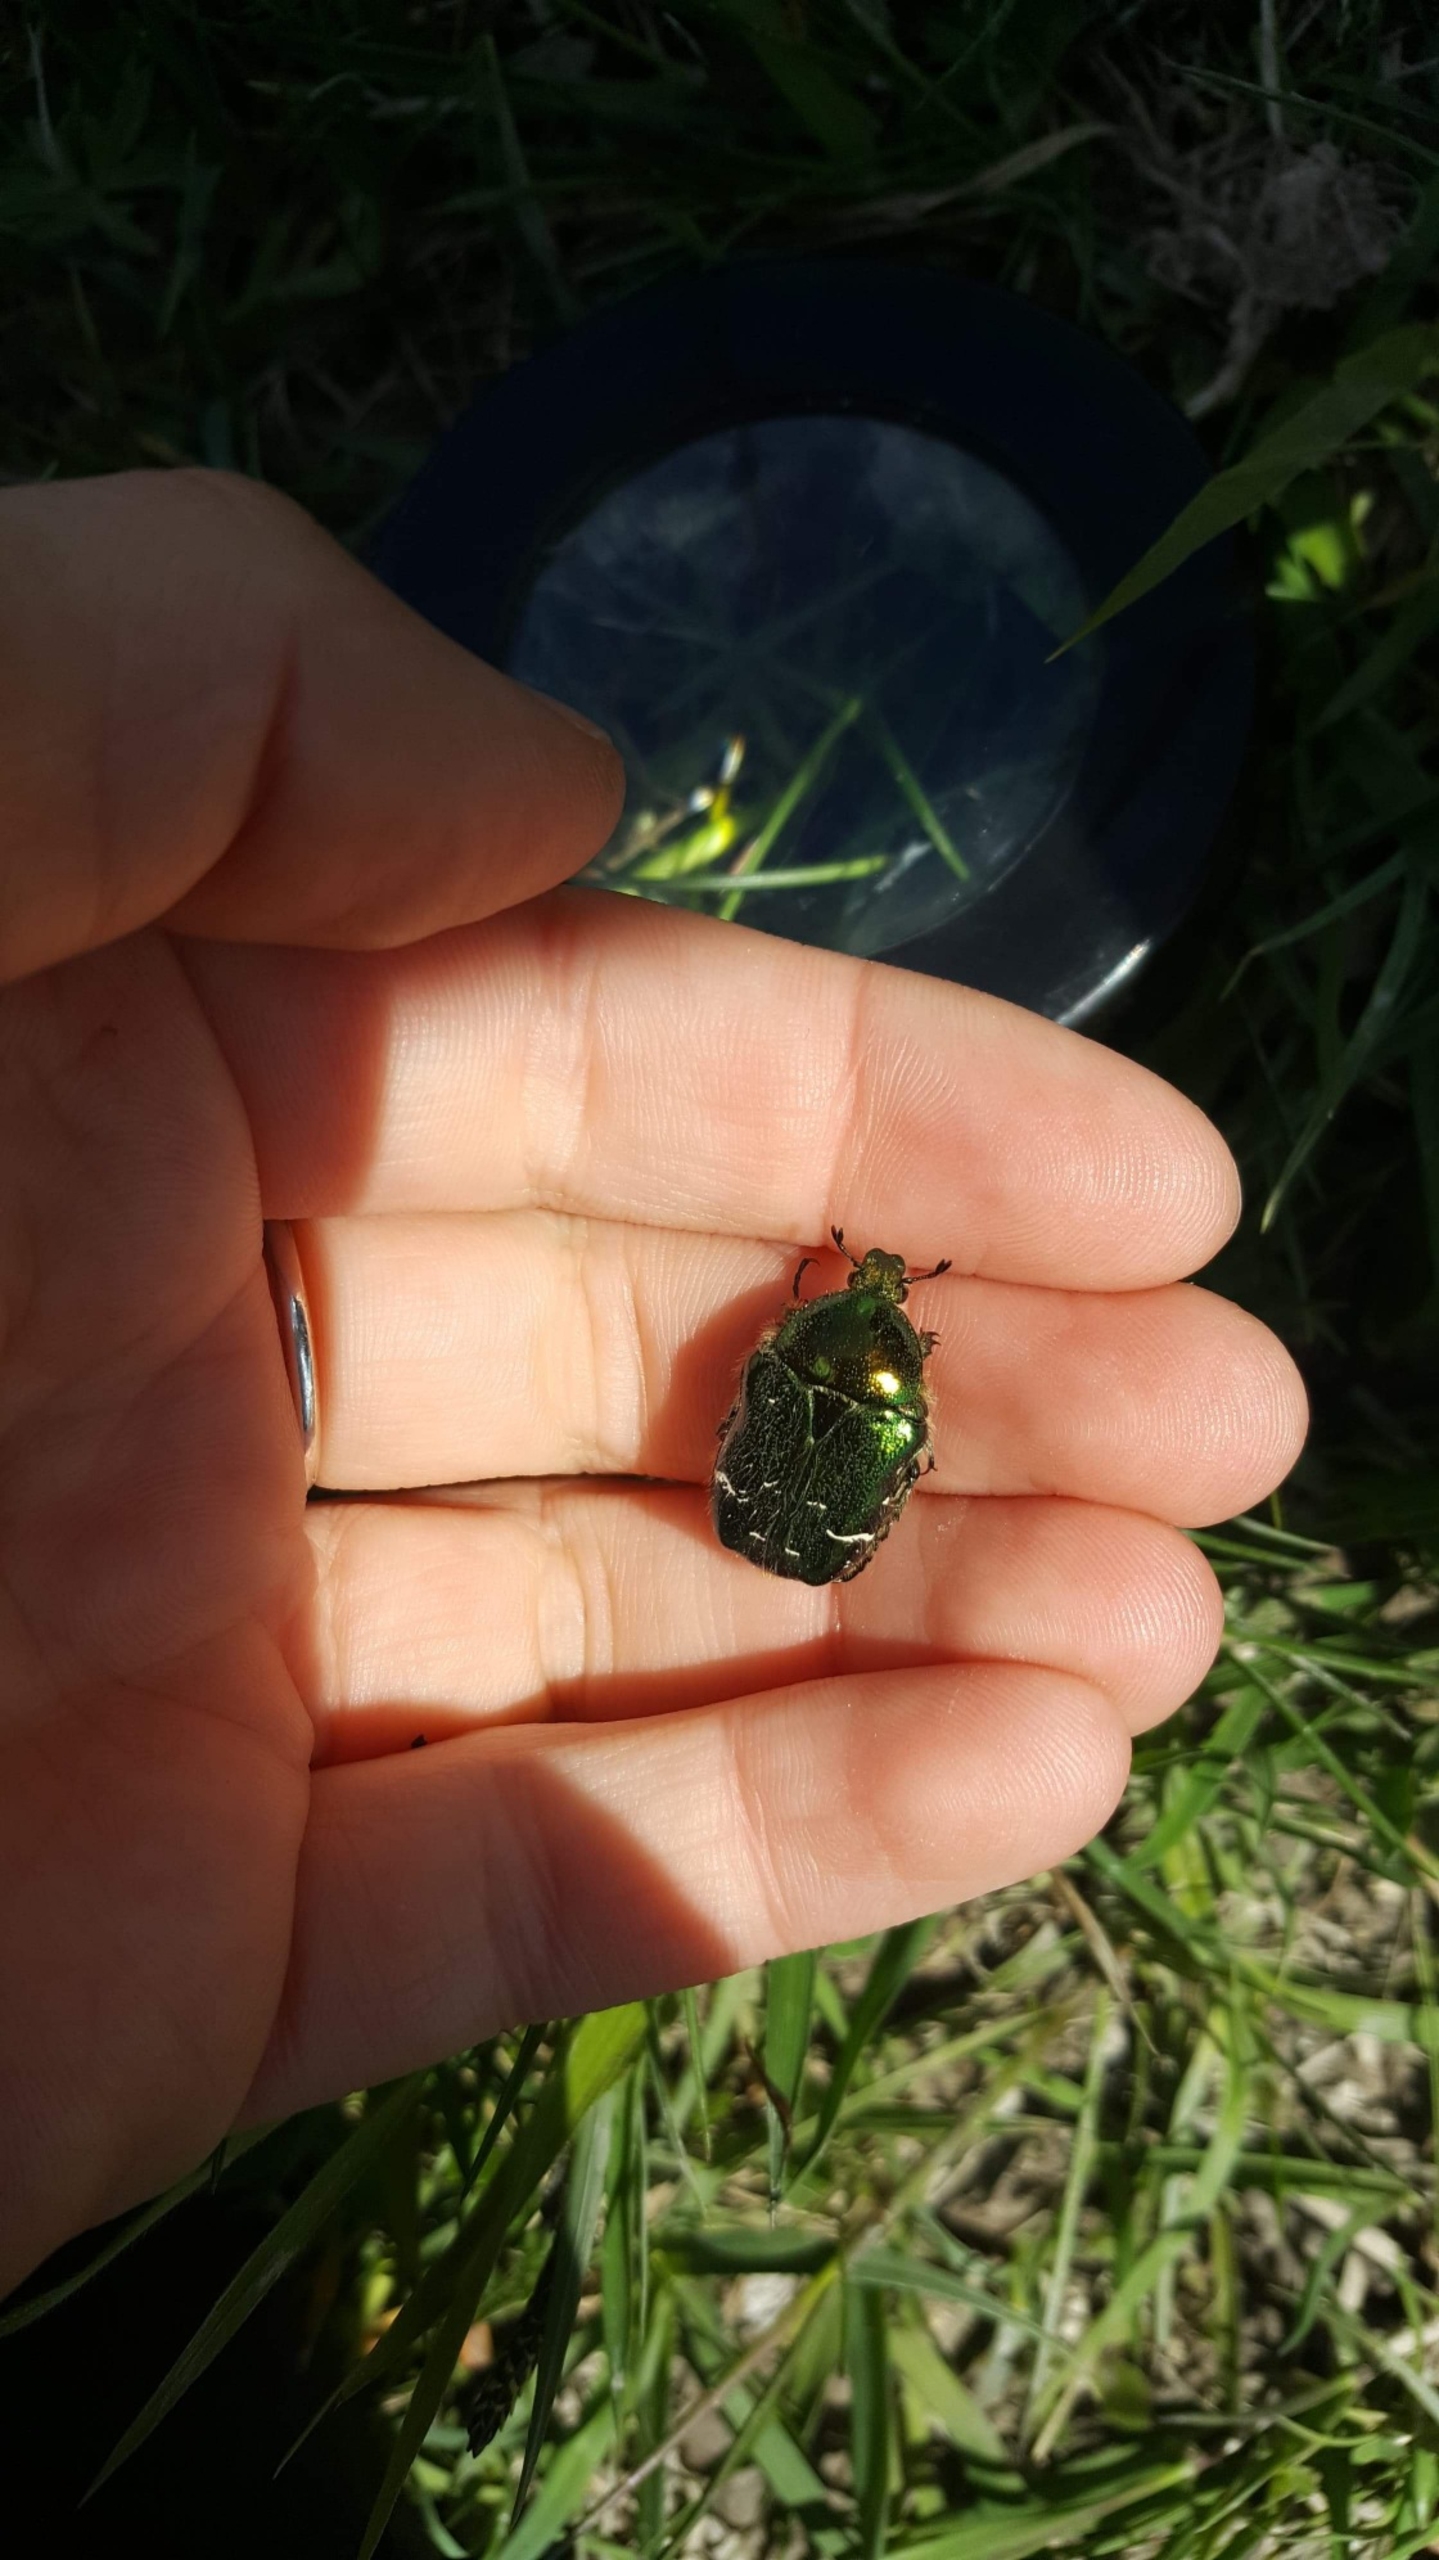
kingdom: Animalia
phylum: Arthropoda
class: Insecta
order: Coleoptera
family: Scarabaeidae
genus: Cetonia
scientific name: Cetonia aurata
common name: Grøn guldbasse
